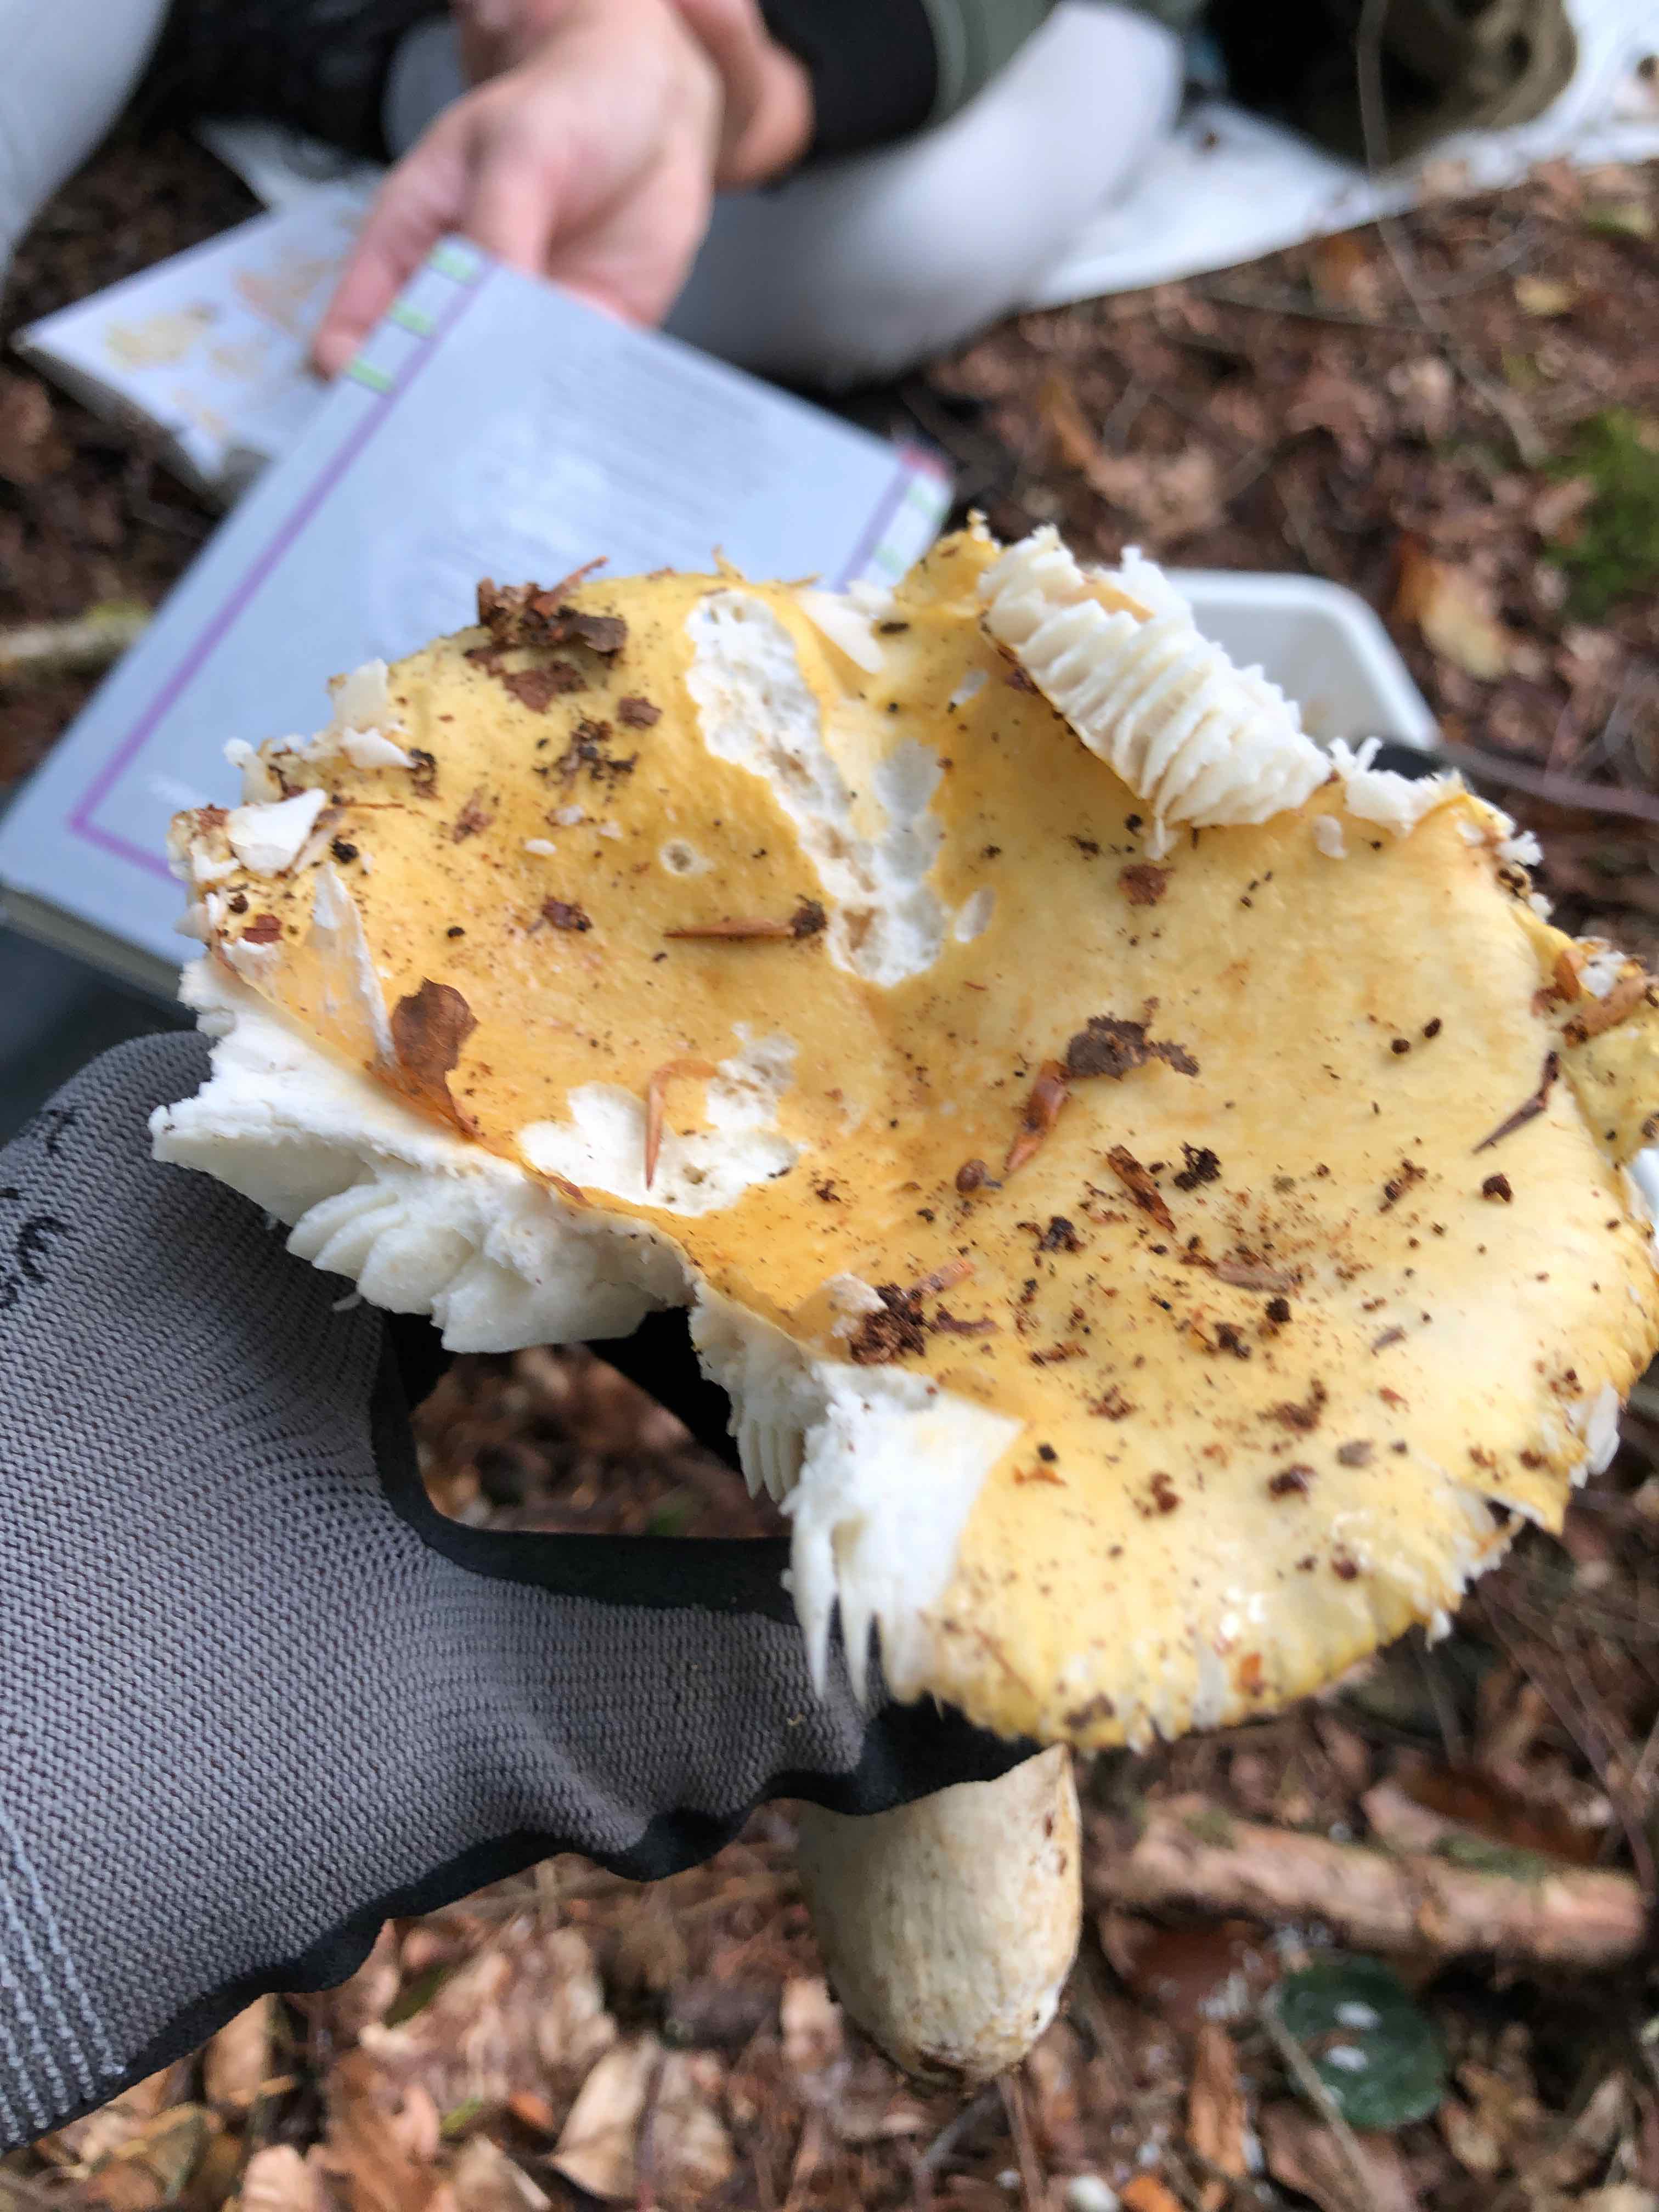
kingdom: Fungi
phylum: Basidiomycota
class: Agaricomycetes
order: Russulales
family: Russulaceae
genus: Russula
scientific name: Russula ochroleuca
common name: okkergul skørhat
